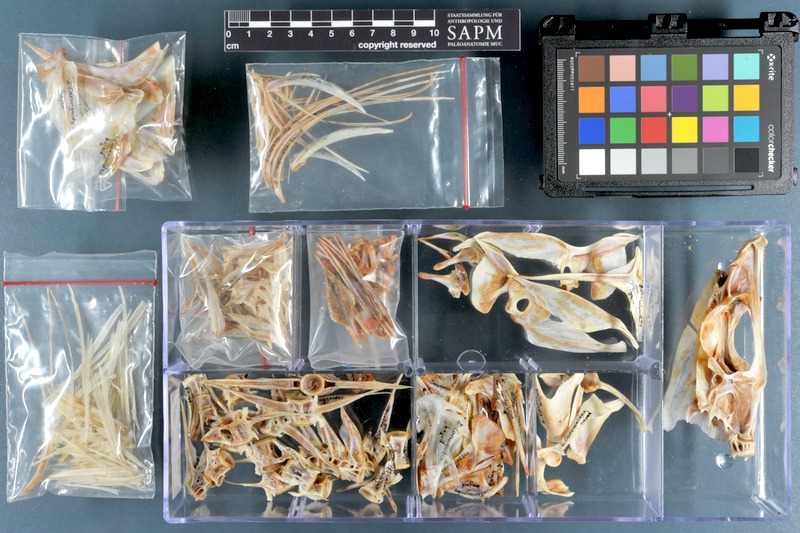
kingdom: Animalia
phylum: Chordata
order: Perciformes
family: Carangidae
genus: Carangoides
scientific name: Carangoides bajad
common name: Orangespotted trevally
